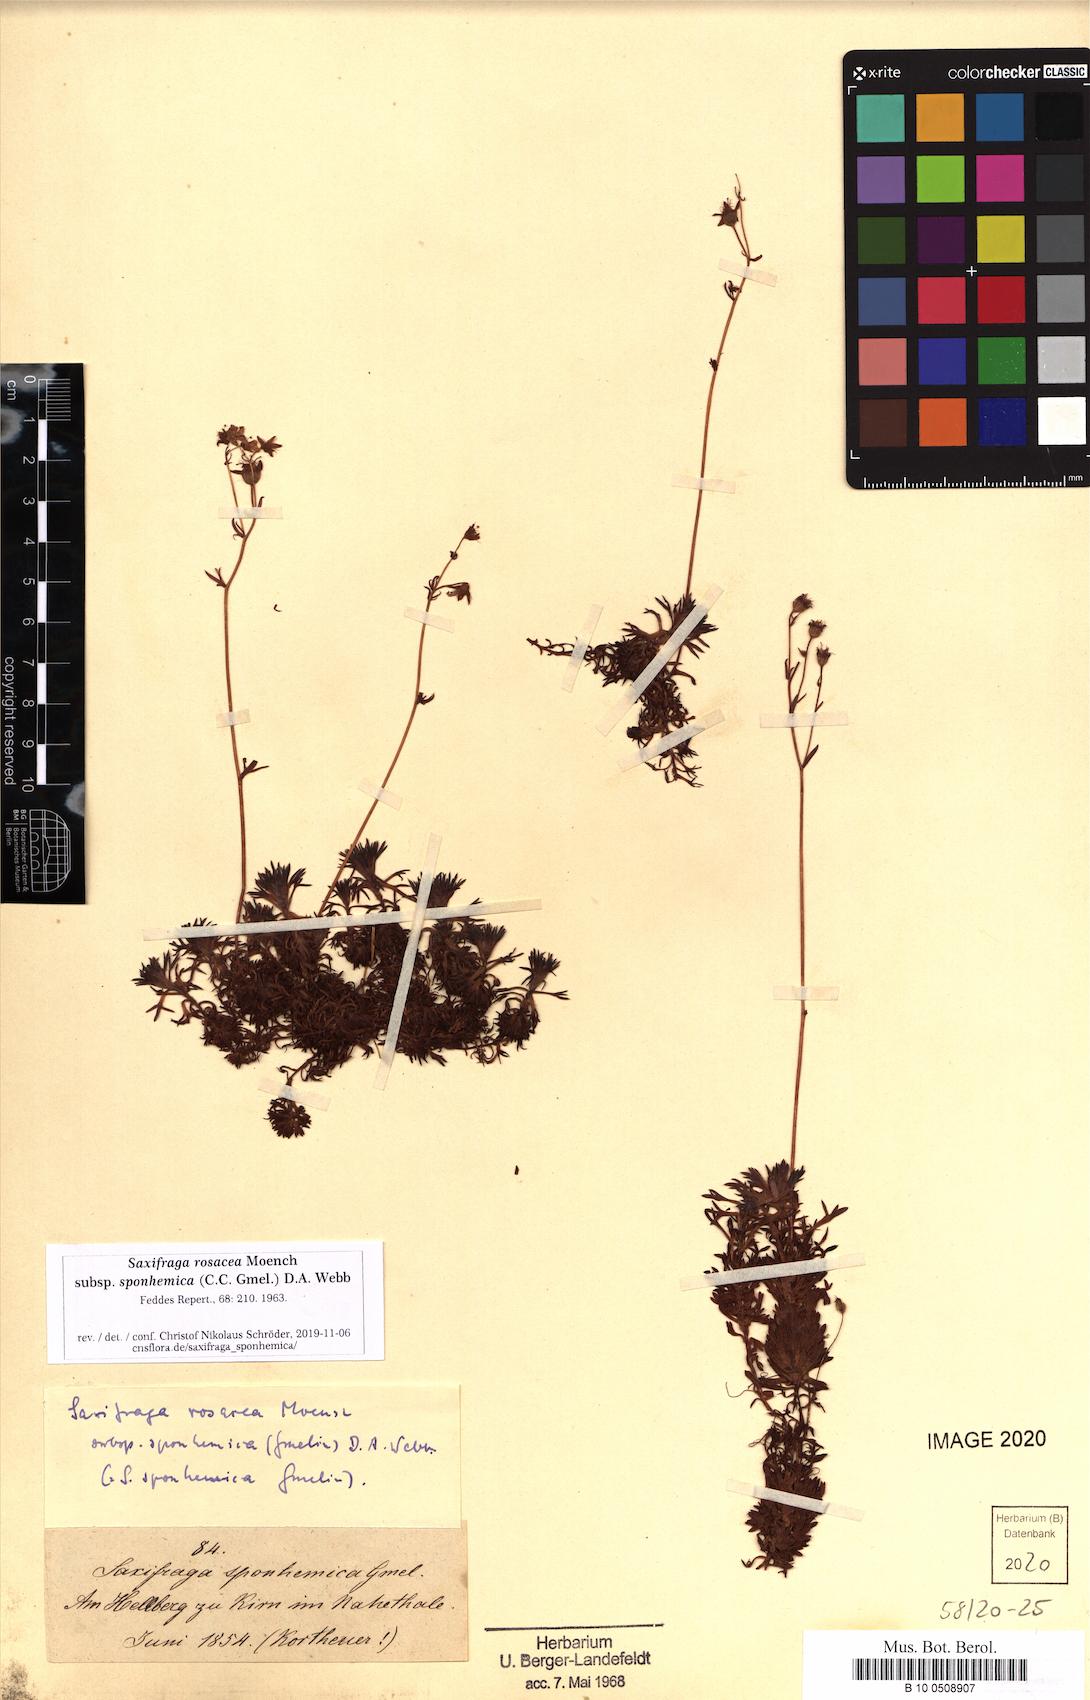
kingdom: Plantae
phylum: Tracheophyta
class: Magnoliopsida
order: Saxifragales
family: Saxifragaceae
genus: Saxifraga
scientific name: Saxifraga rosacea
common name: Irish saxifrage
